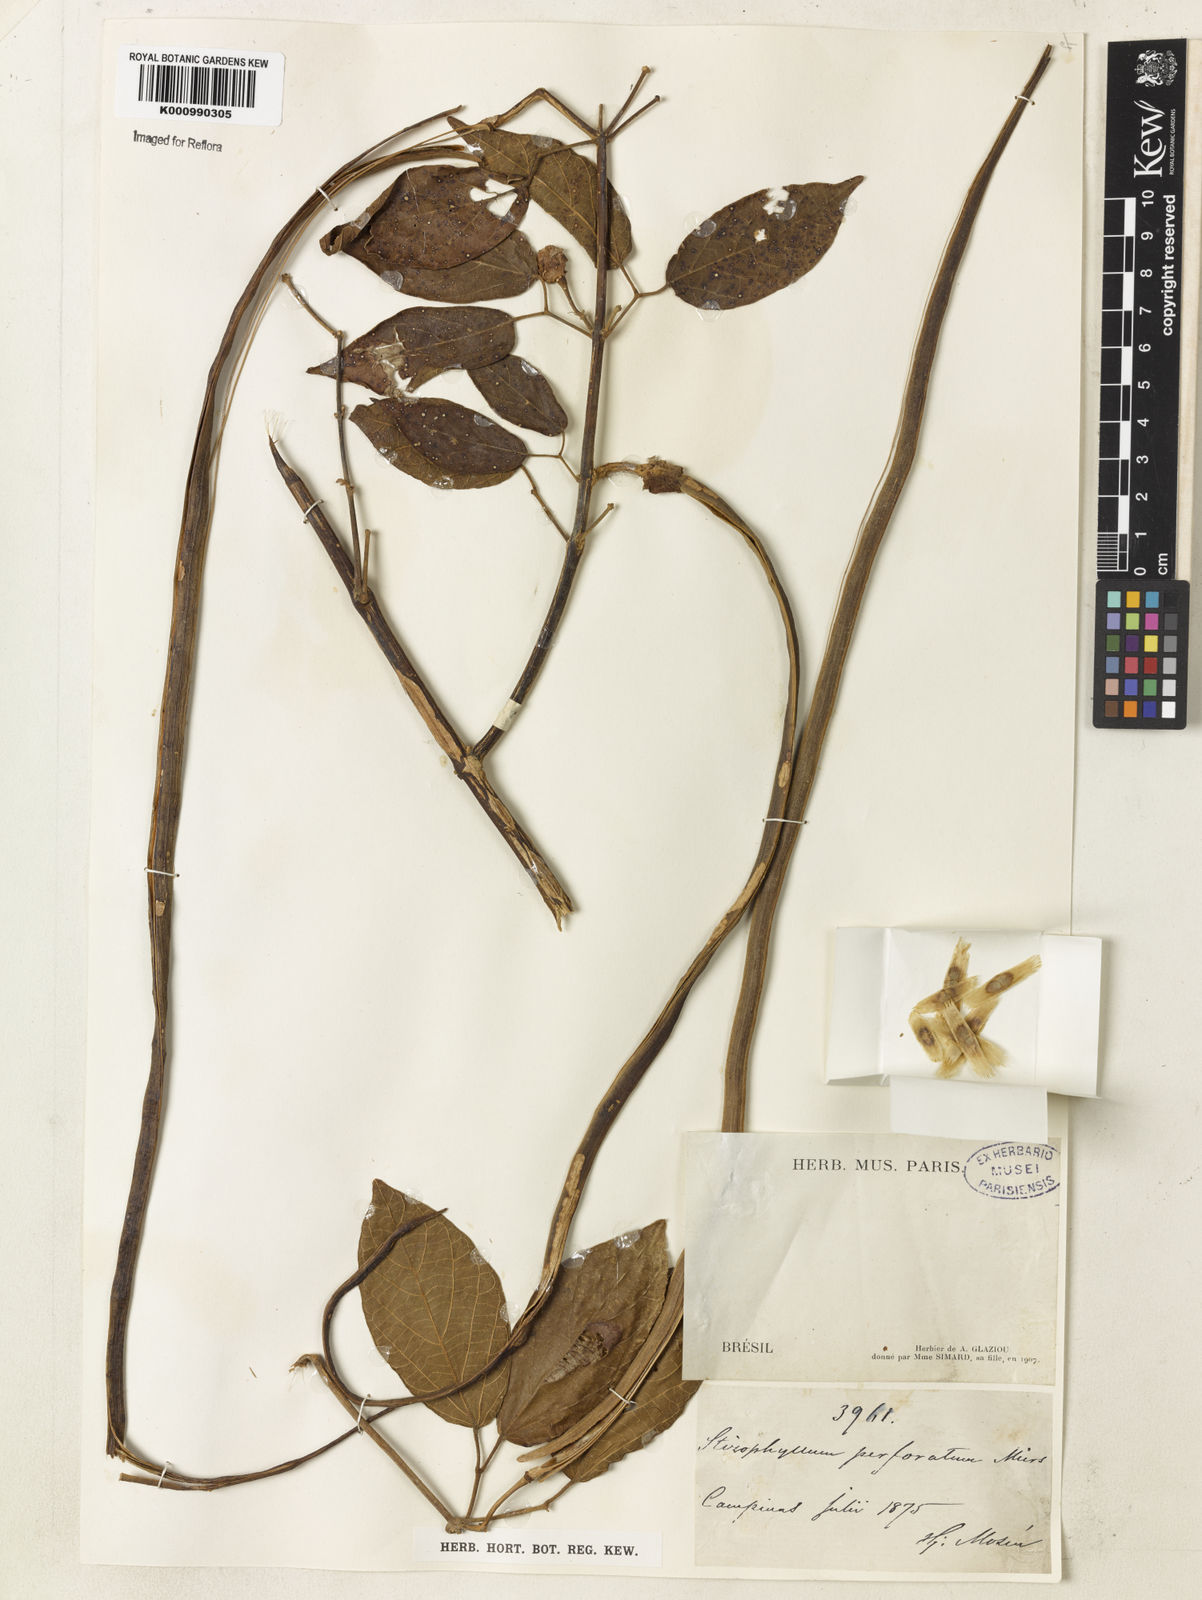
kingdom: Plantae
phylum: Tracheophyta
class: Magnoliopsida
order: Lamiales
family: Bignoniaceae
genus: Stizophyllum
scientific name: Stizophyllum perforatum
